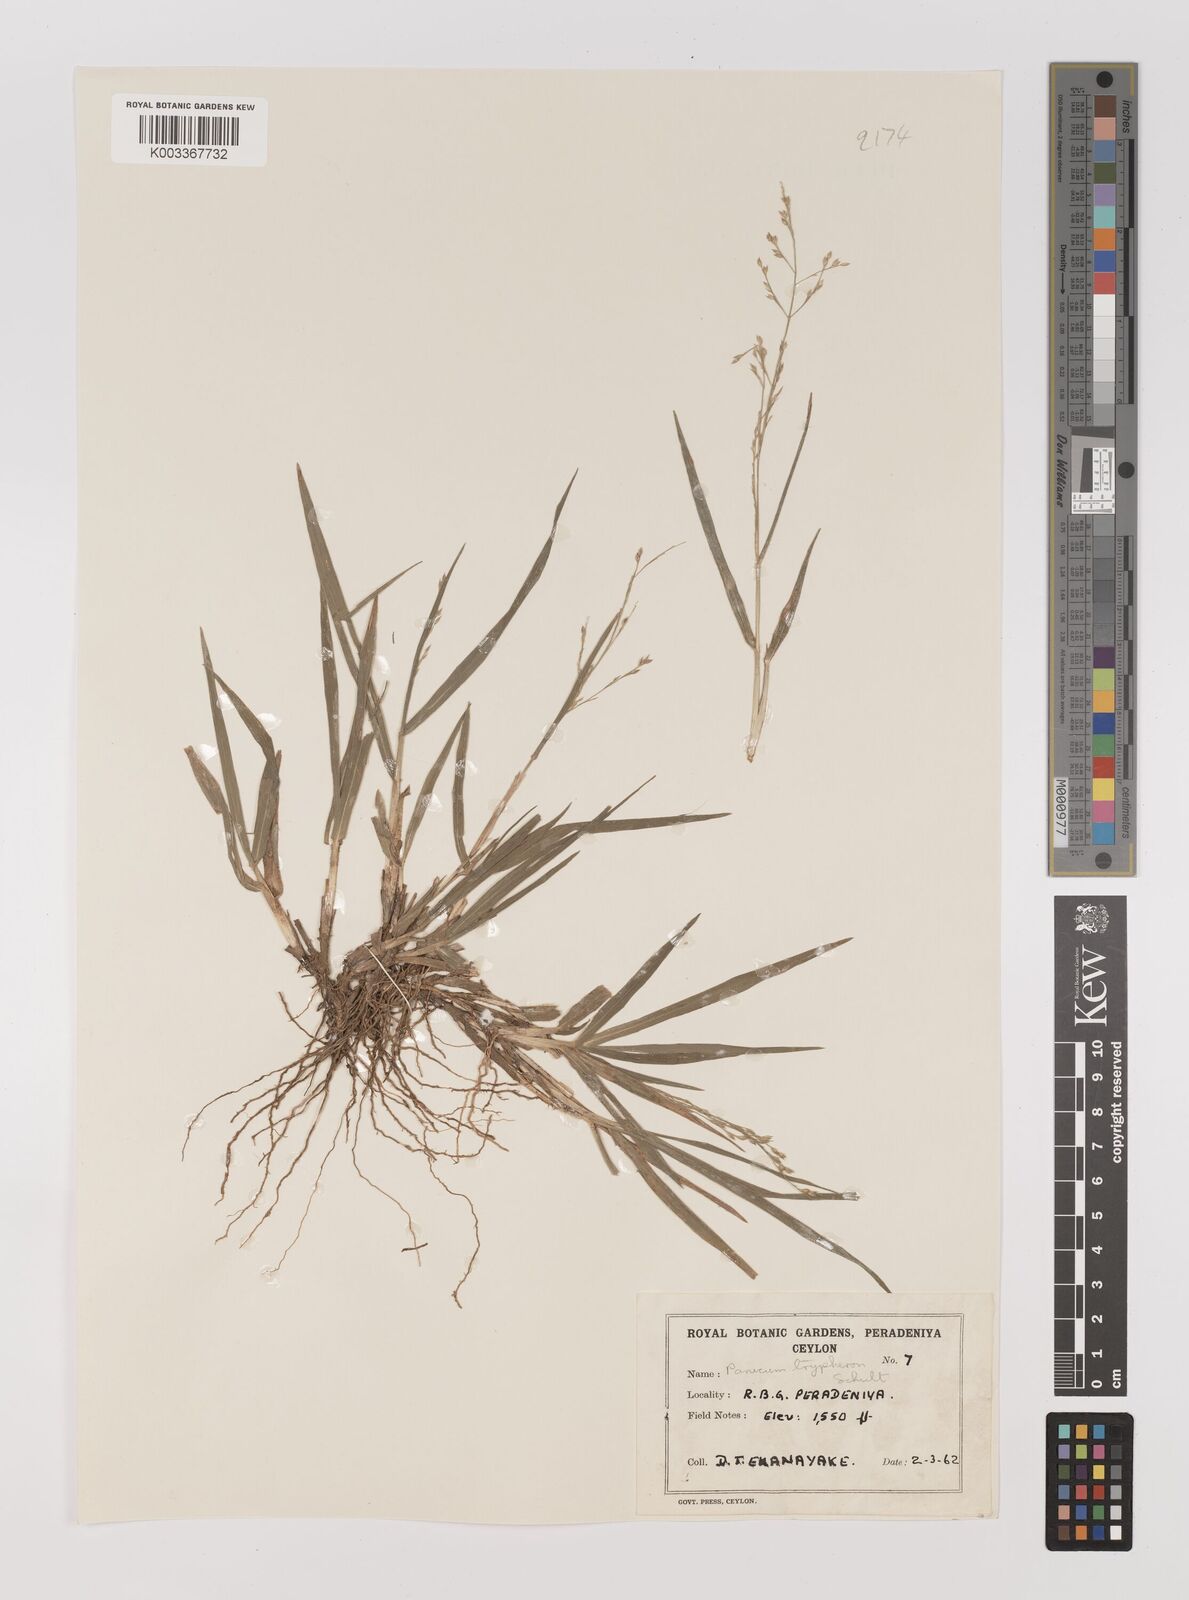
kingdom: Plantae
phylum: Tracheophyta
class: Liliopsida
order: Poales
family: Poaceae
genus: Panicum
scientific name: Panicum curviflorum
